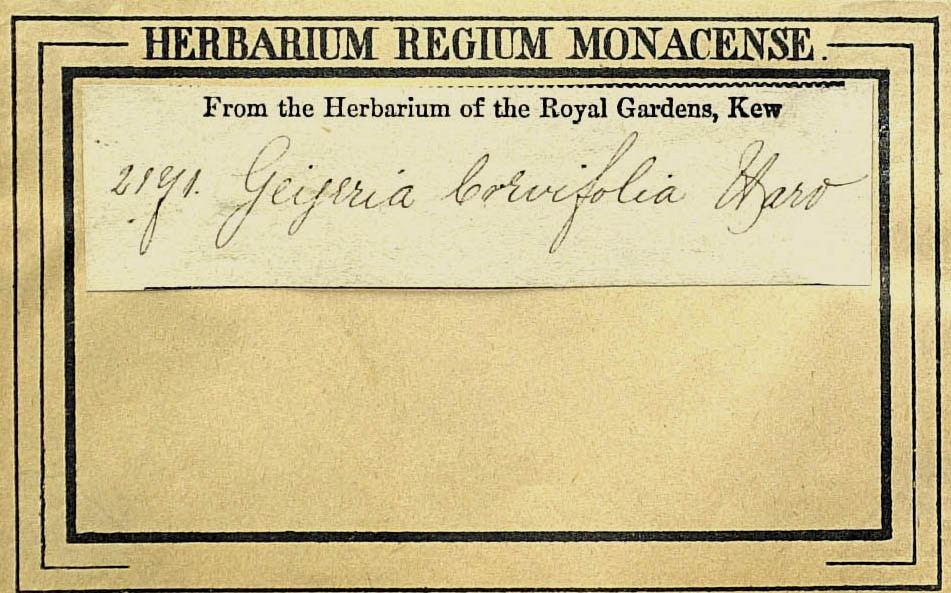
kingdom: Plantae
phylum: Tracheophyta
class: Magnoliopsida
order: Asterales
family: Asteraceae
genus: Geigeria
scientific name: Geigeria brevifolia
